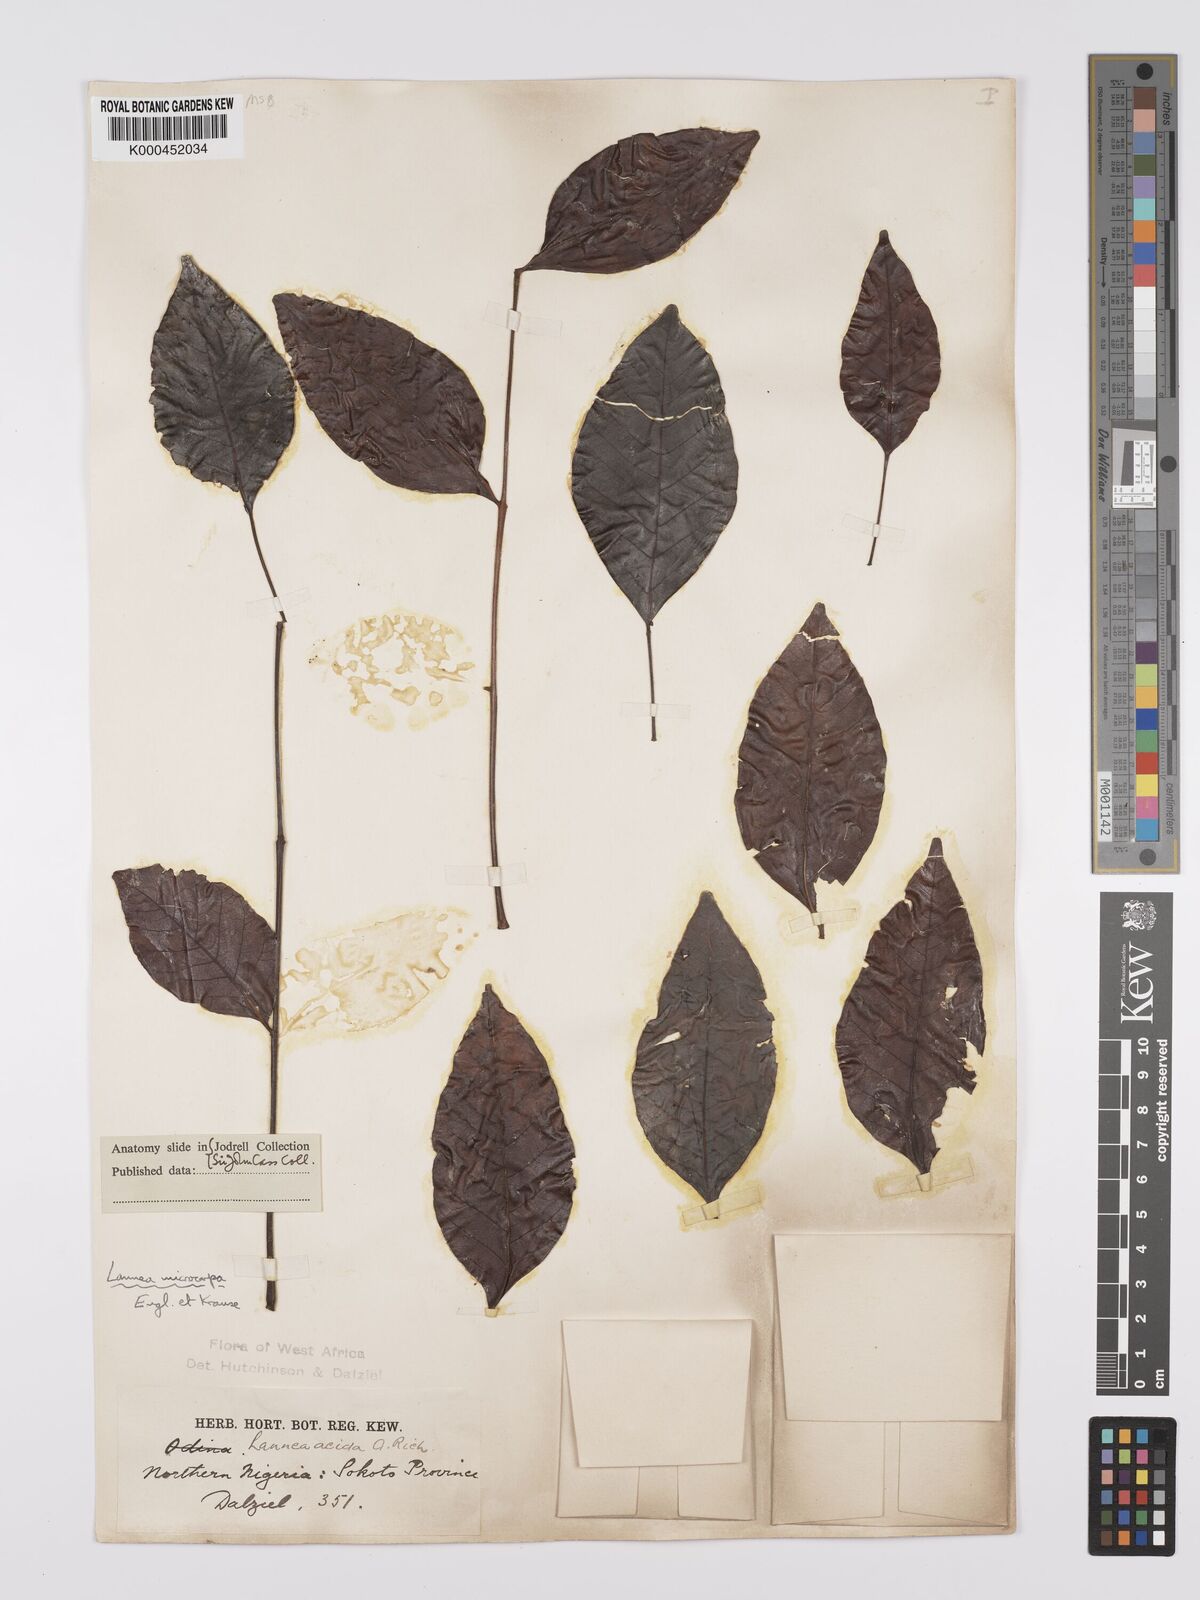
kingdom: Plantae
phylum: Tracheophyta
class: Magnoliopsida
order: Sapindales
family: Anacardiaceae
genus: Lannea
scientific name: Lannea acida
